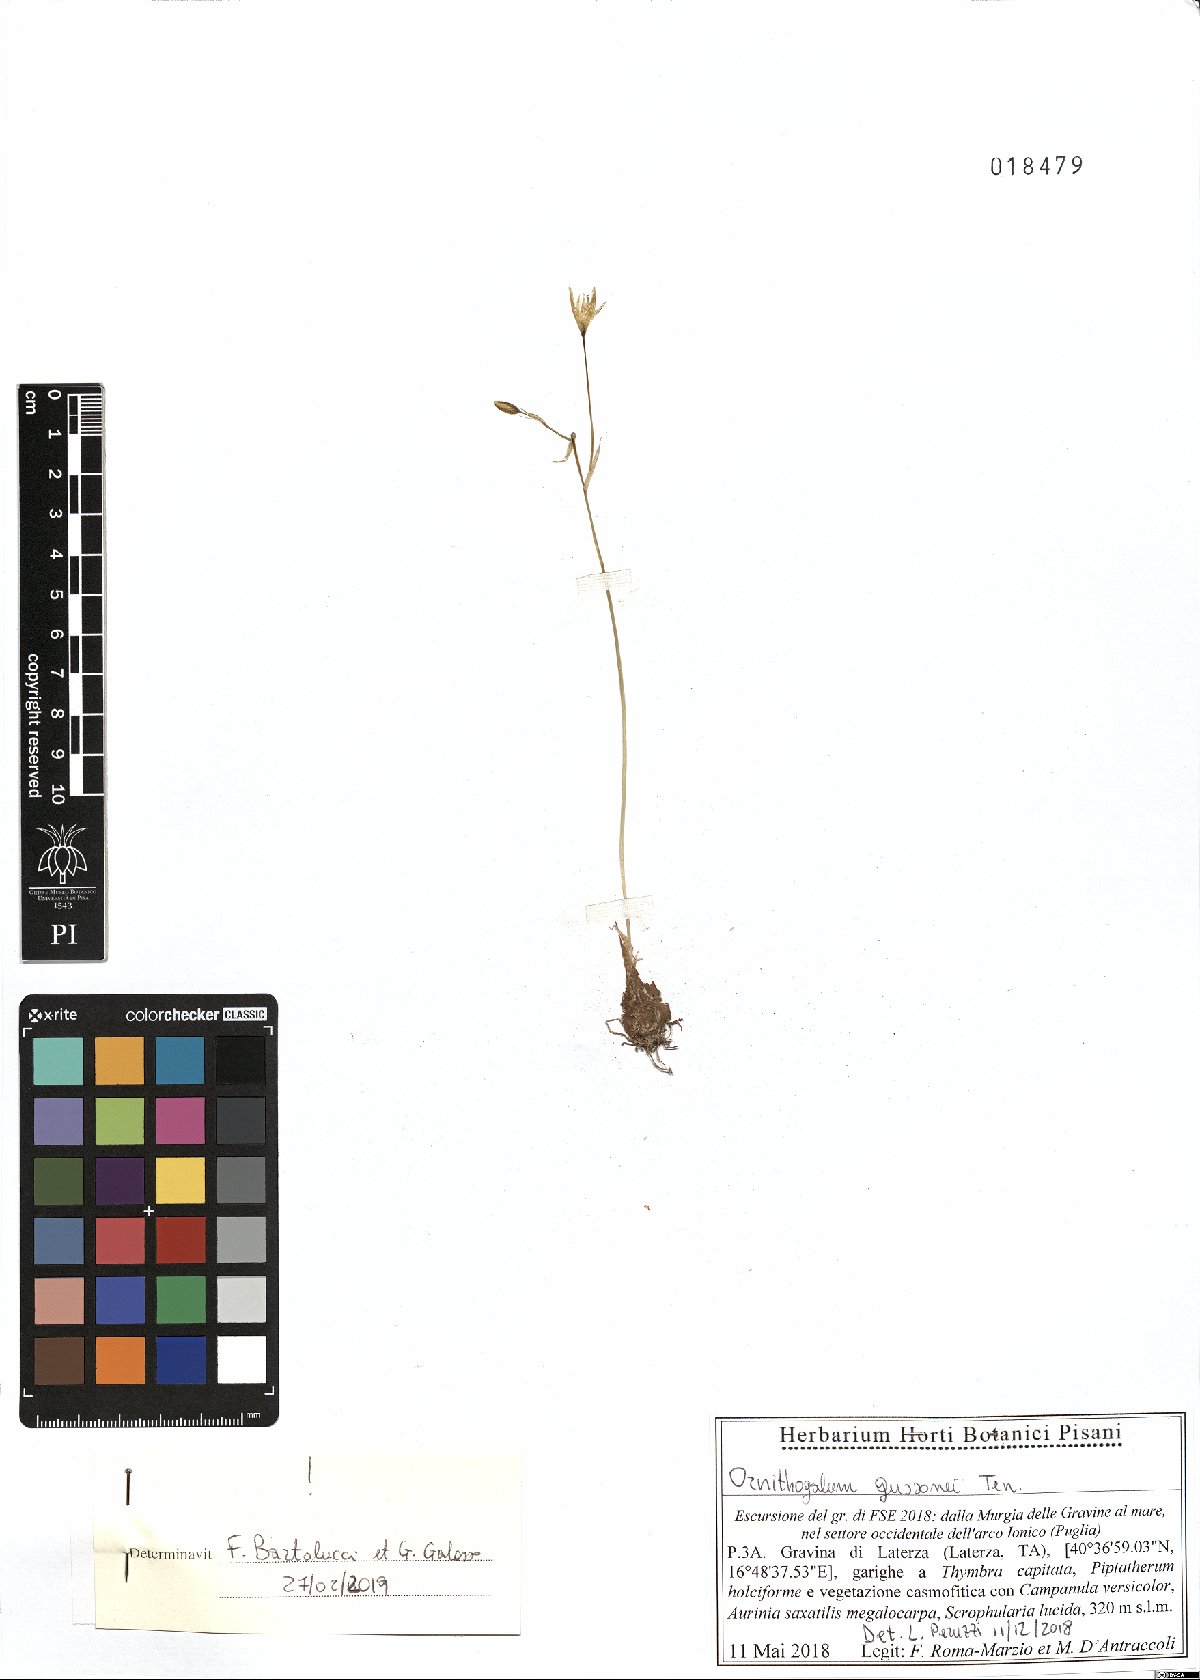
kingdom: Plantae
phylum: Tracheophyta
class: Liliopsida
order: Asparagales
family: Asparagaceae
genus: Ornithogalum
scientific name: Ornithogalum gussonei
